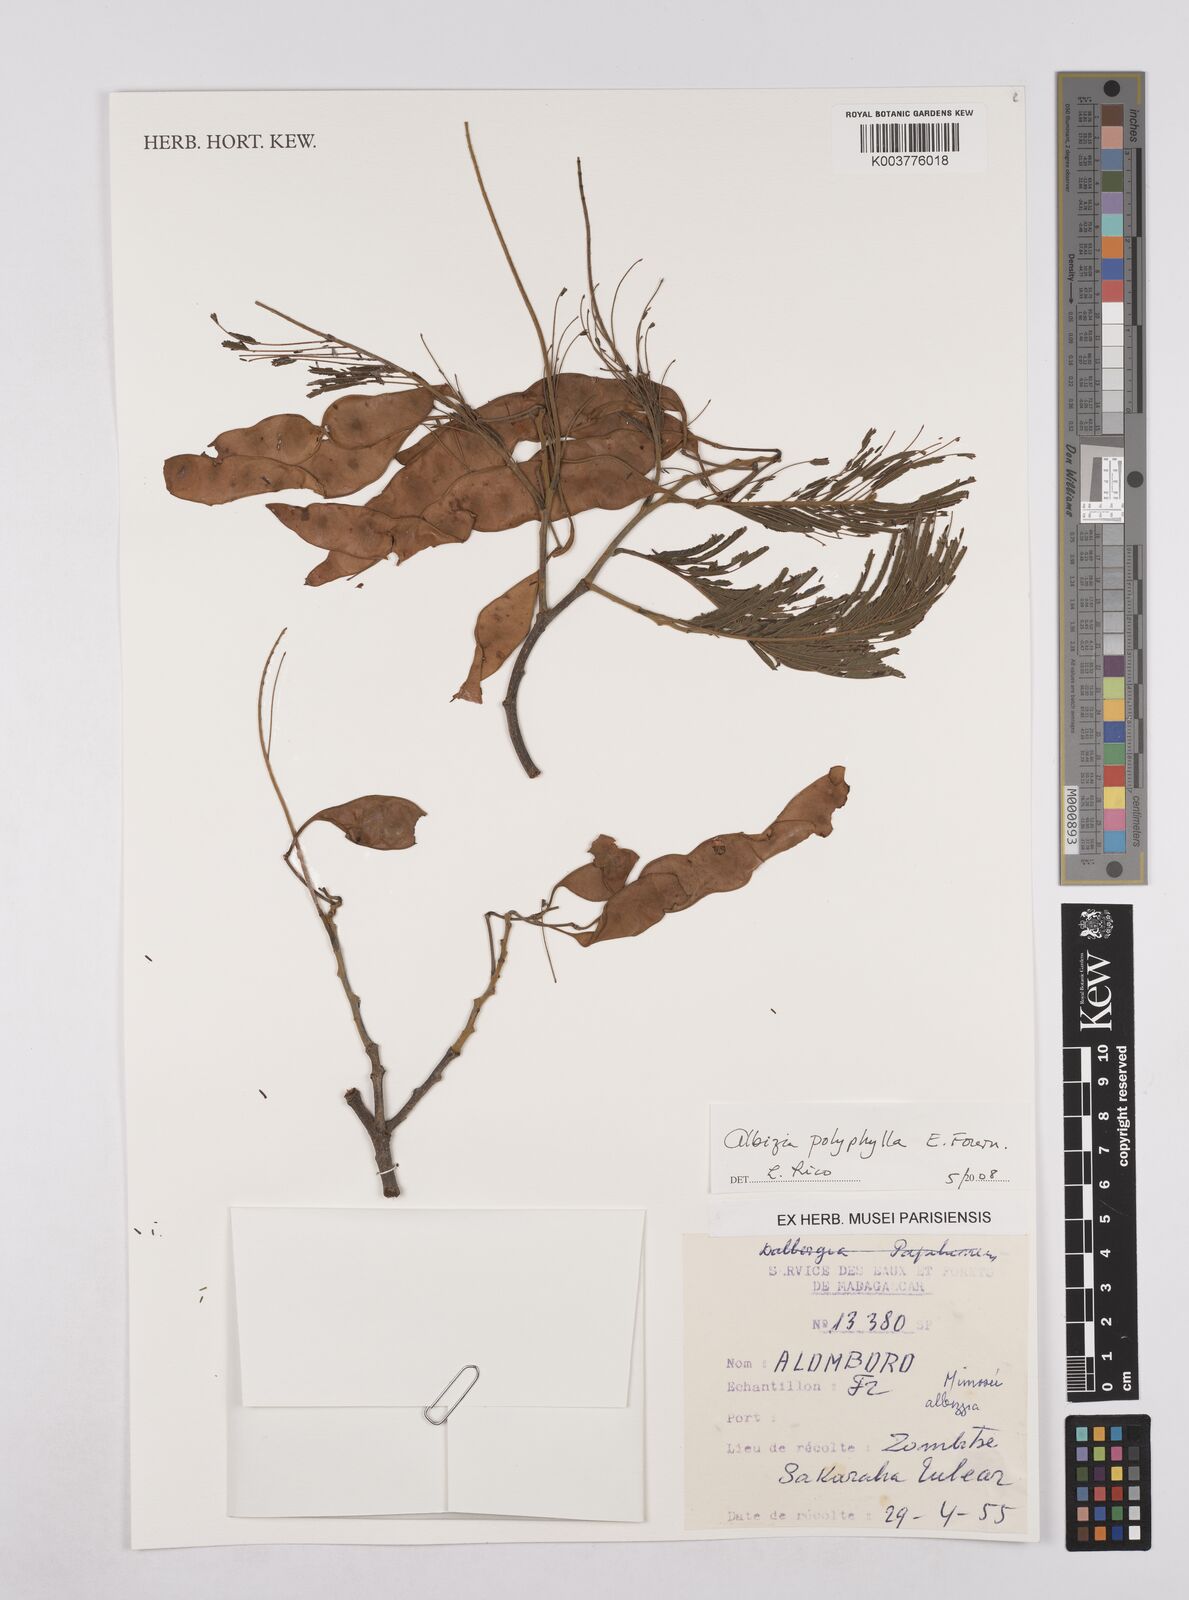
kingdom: Plantae
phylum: Tracheophyta
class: Magnoliopsida
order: Fabales
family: Fabaceae
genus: Albizia
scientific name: Albizia polyphylla
